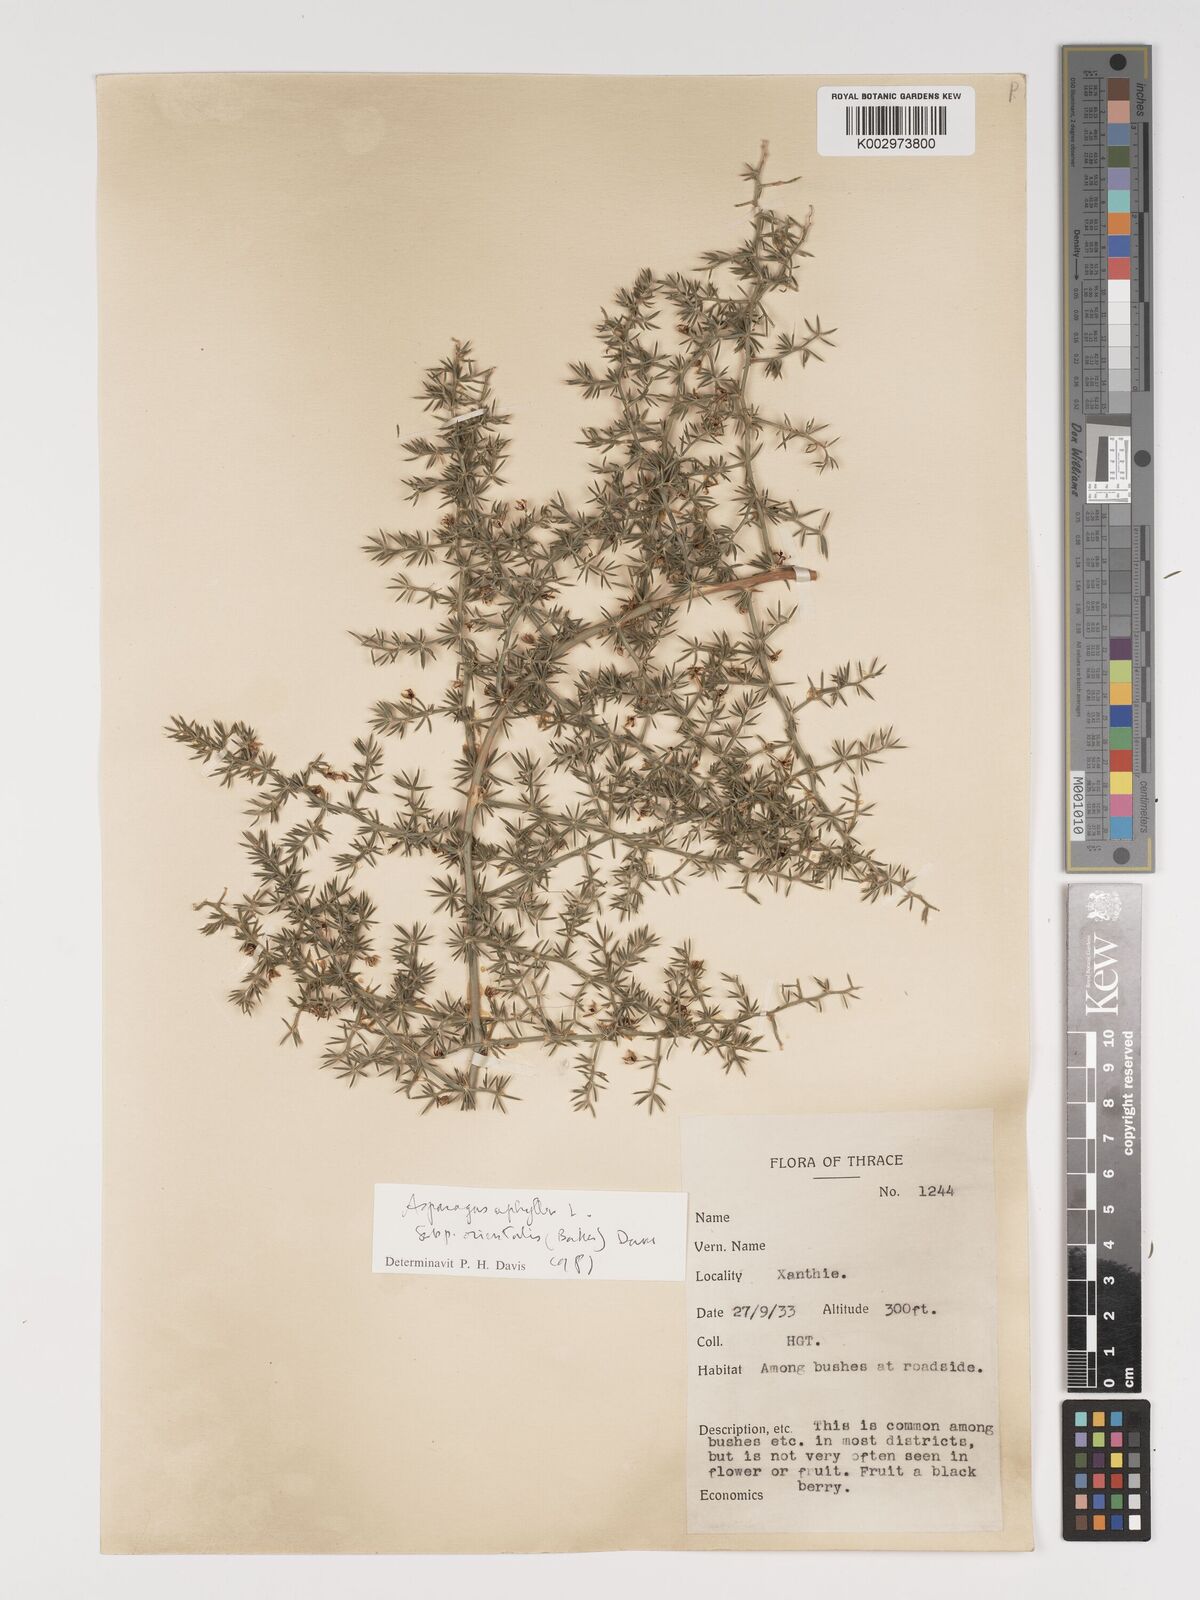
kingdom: Plantae
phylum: Tracheophyta
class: Liliopsida
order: Asparagales
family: Asparagaceae
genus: Asparagus
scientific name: Asparagus aphyllus
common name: Mediterranean asparagus
